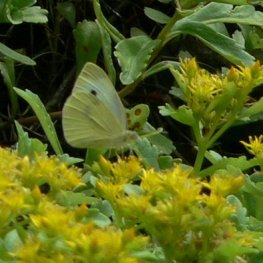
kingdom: Animalia
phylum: Arthropoda
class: Insecta
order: Lepidoptera
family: Pieridae
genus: Pieris
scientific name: Pieris rapae
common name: Cabbage White
